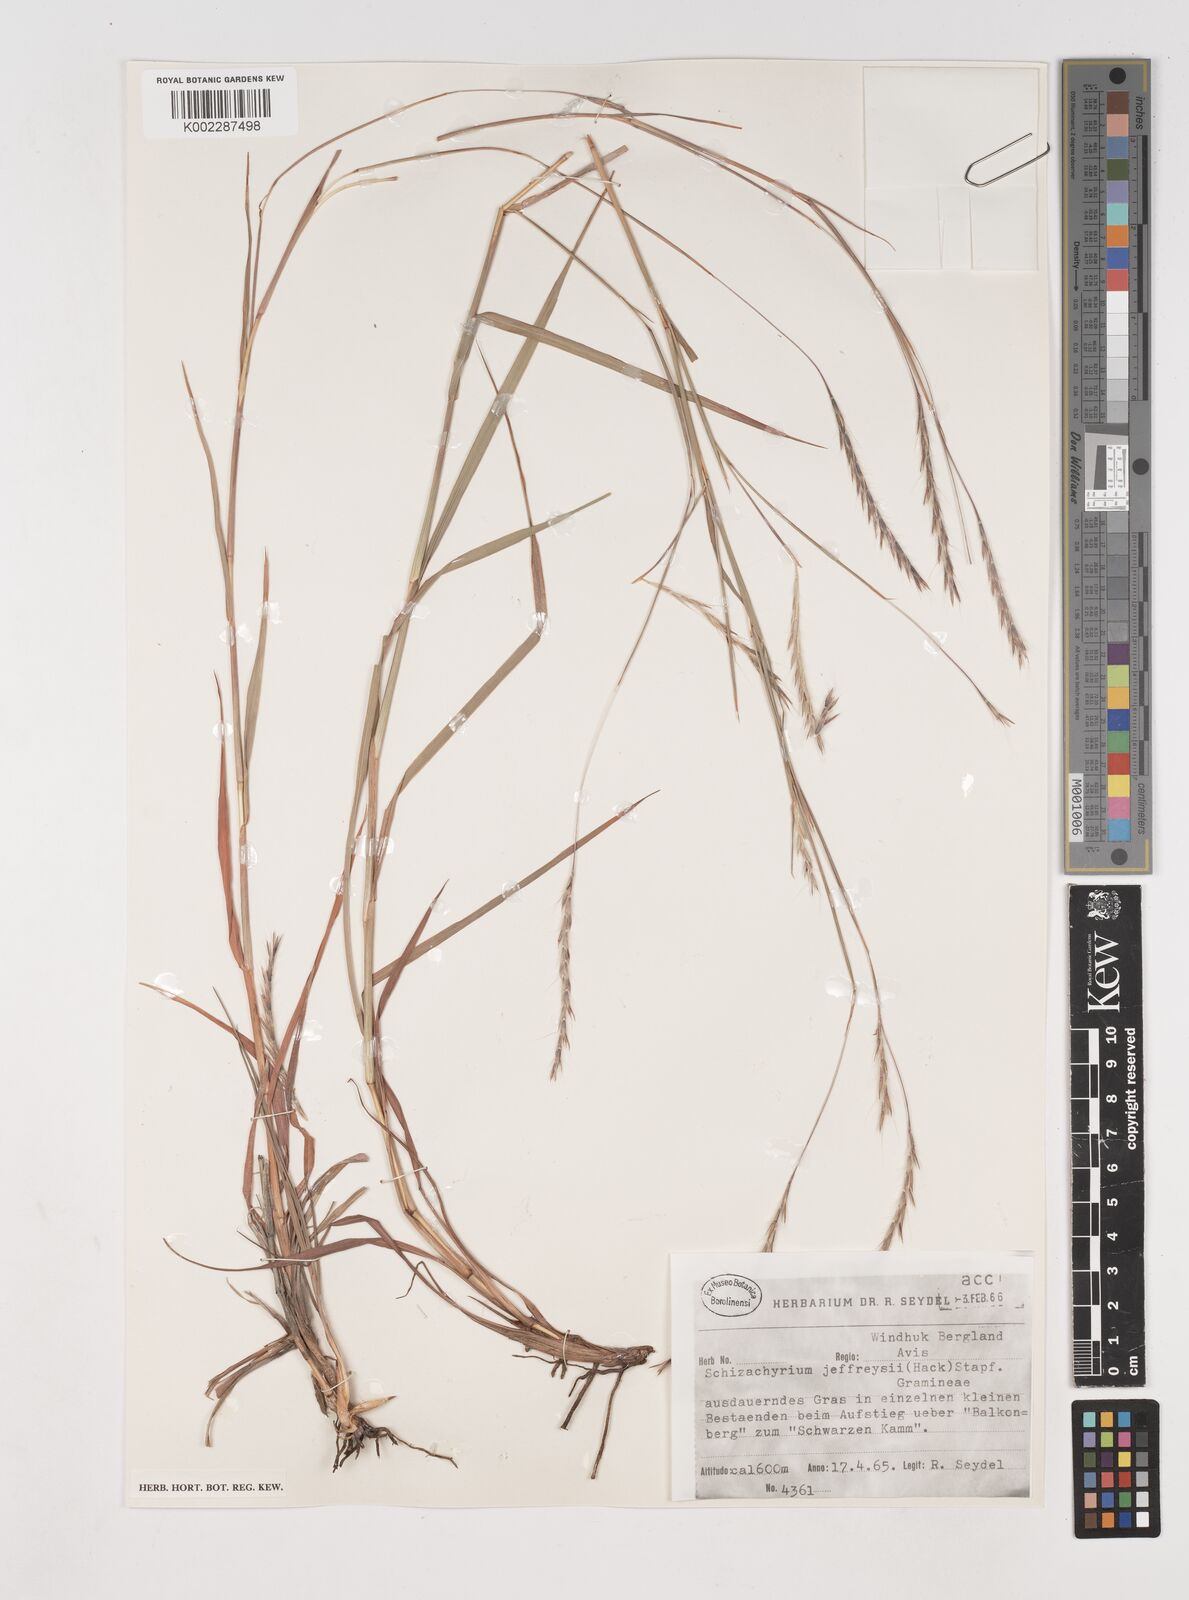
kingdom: Plantae
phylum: Tracheophyta
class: Liliopsida
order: Poales
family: Poaceae
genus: Schizachyrium
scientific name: Schizachyrium jeffreysii
